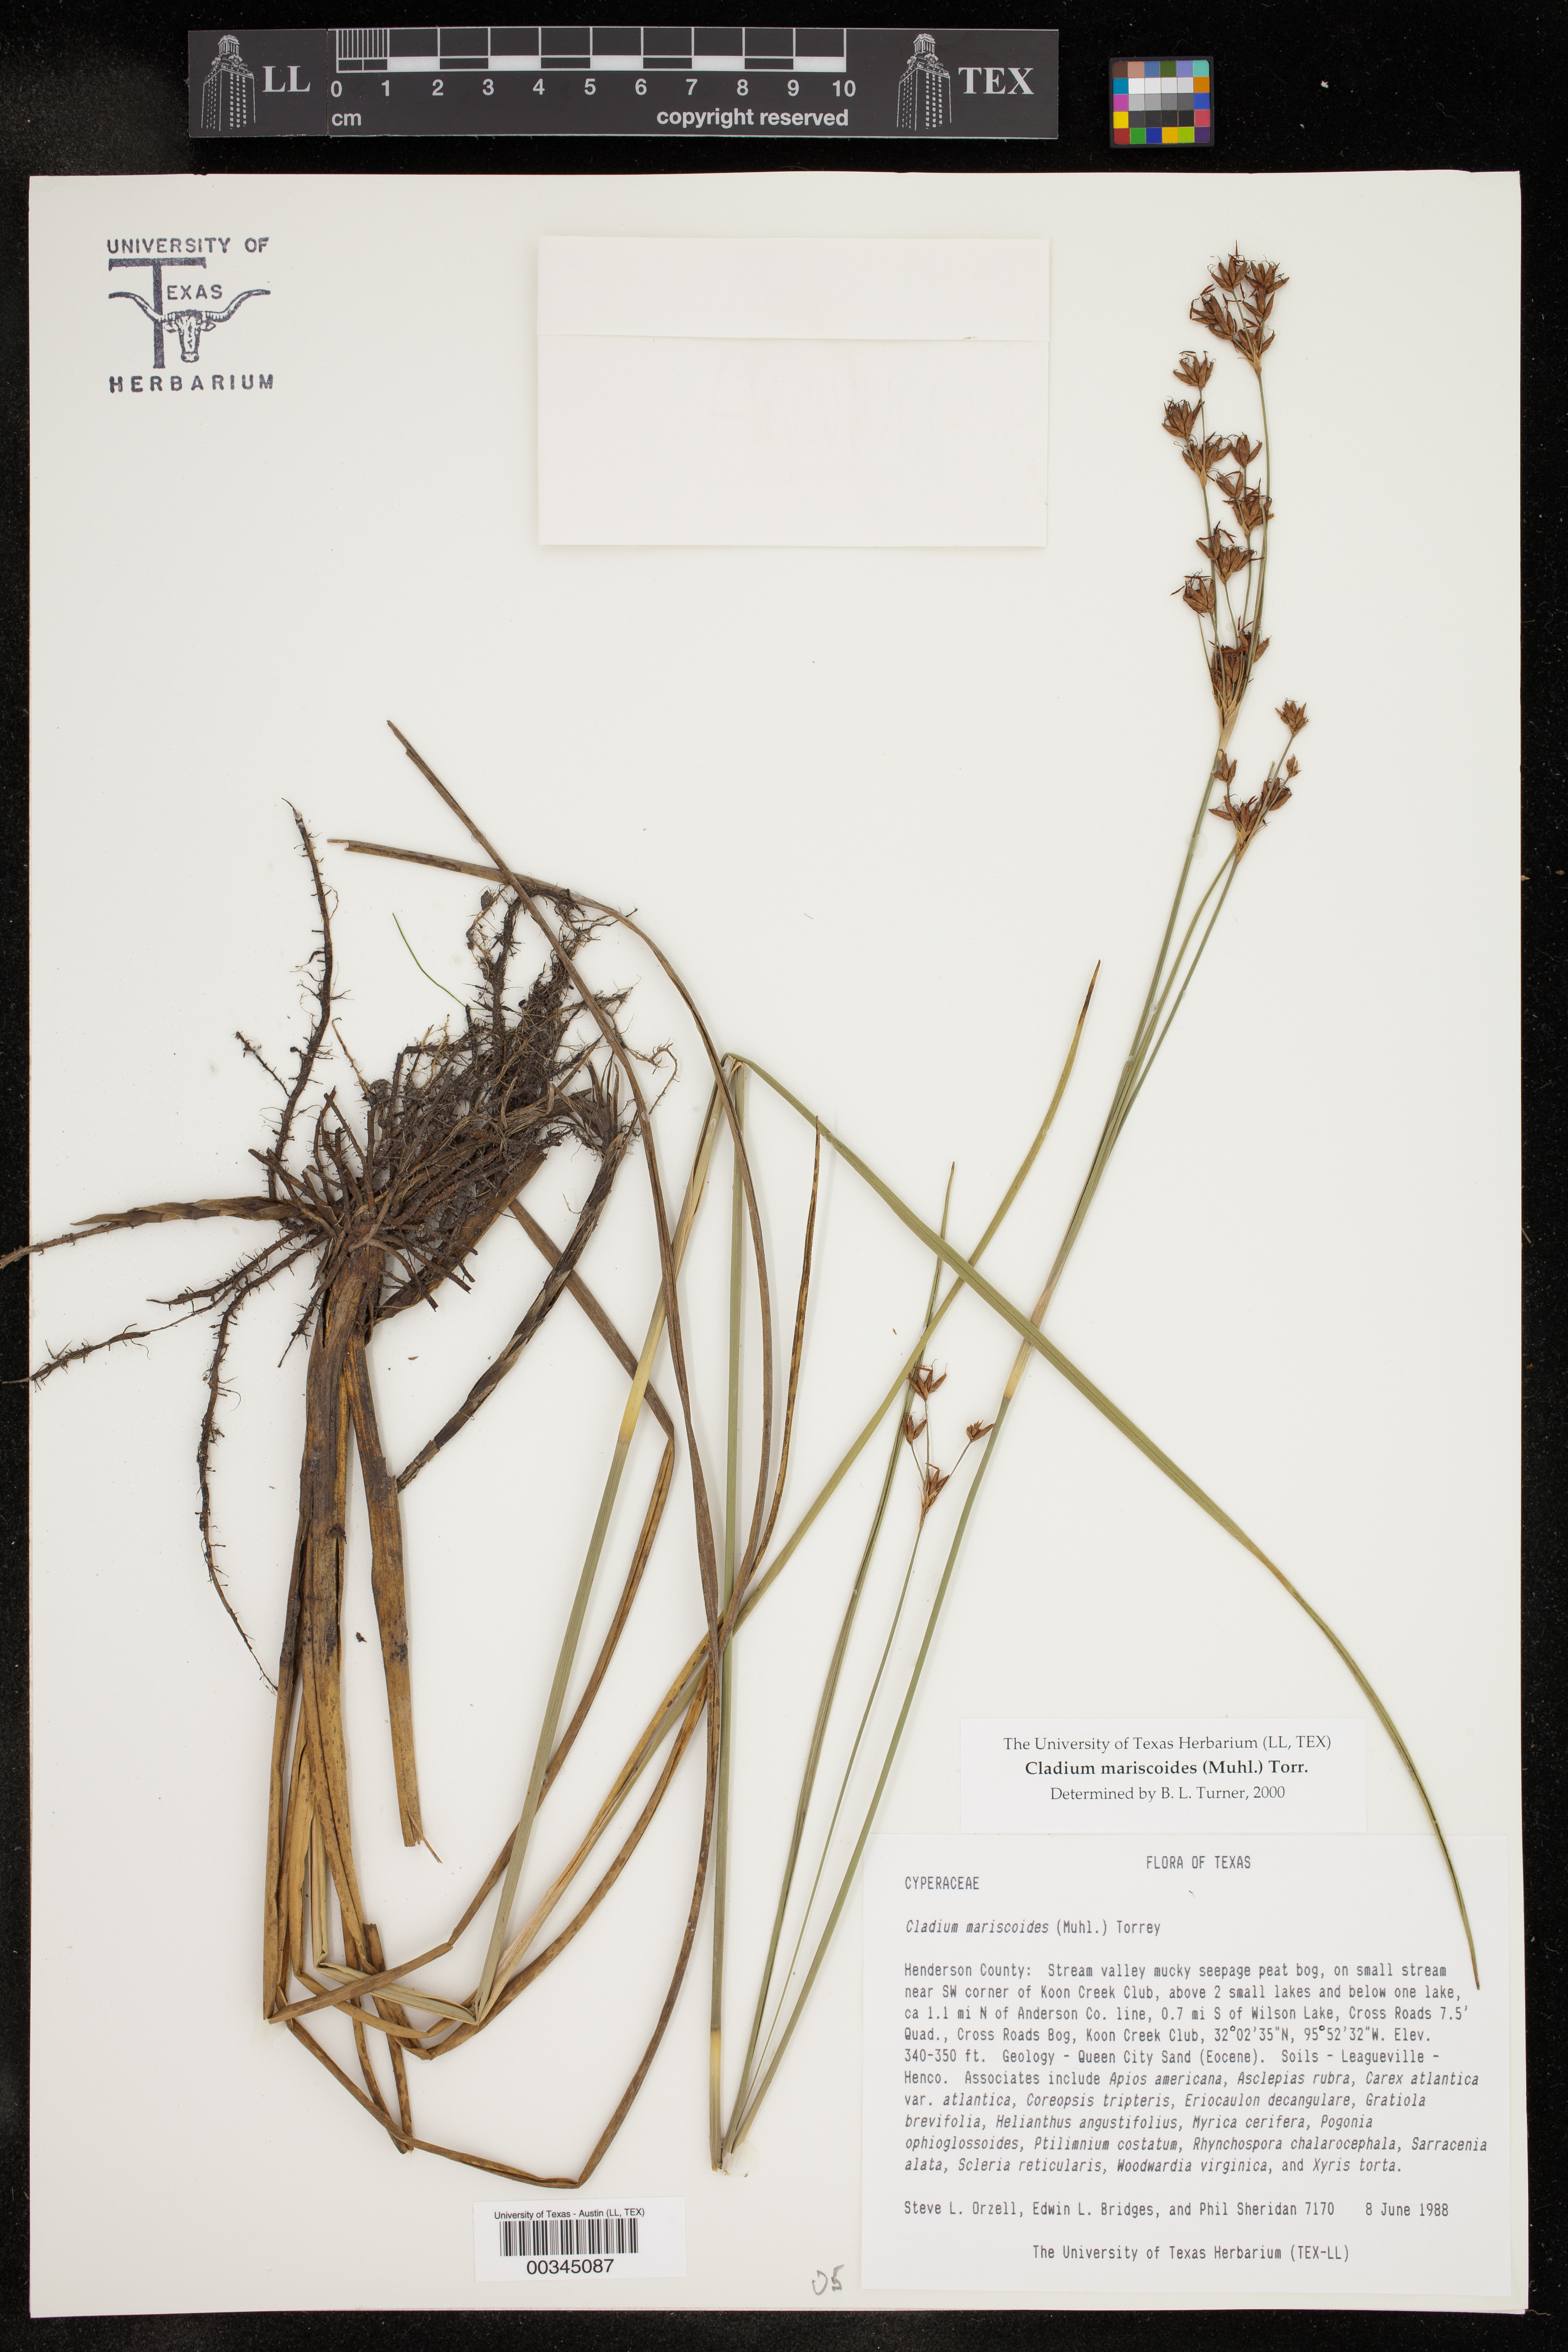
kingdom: Plantae
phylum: Tracheophyta
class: Liliopsida
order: Poales
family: Cyperaceae
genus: Cladium
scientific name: Cladium mariscoides
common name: Smooth sawgrass
